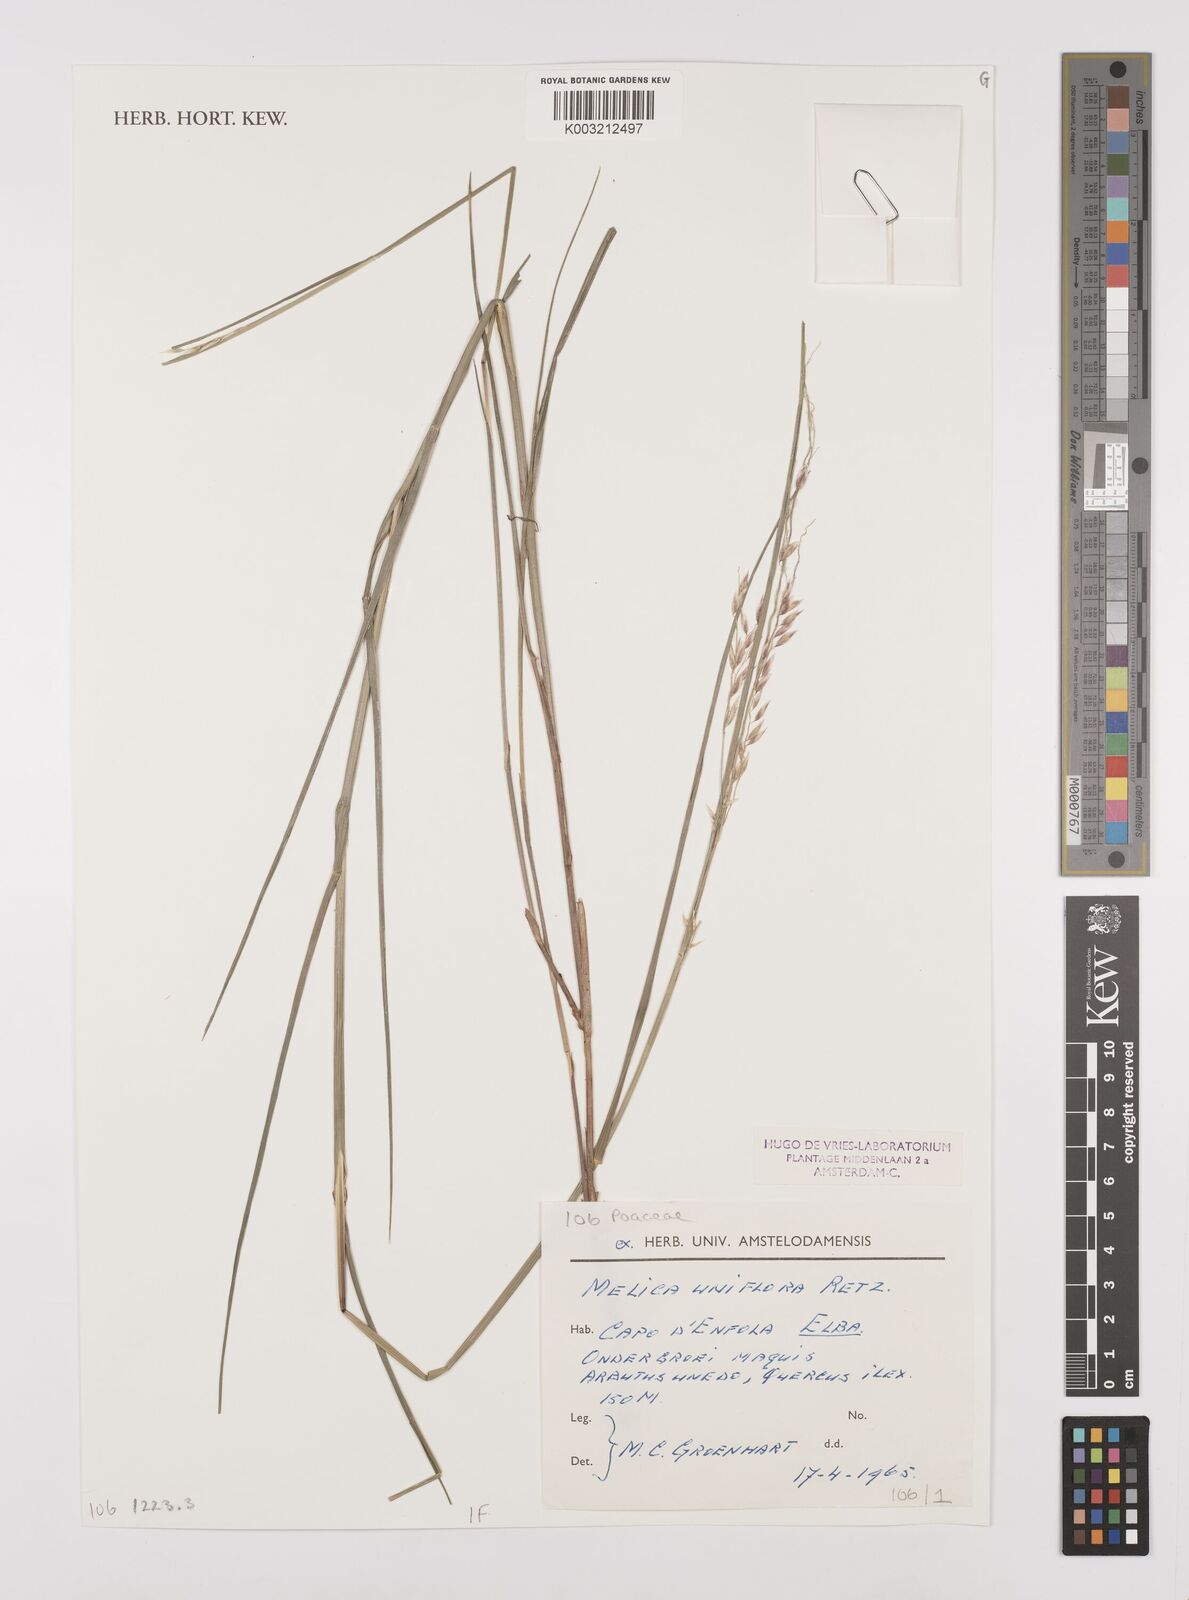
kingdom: Plantae
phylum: Tracheophyta
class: Liliopsida
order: Poales
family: Poaceae
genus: Melica
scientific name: Melica uniflora
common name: Wood melick
